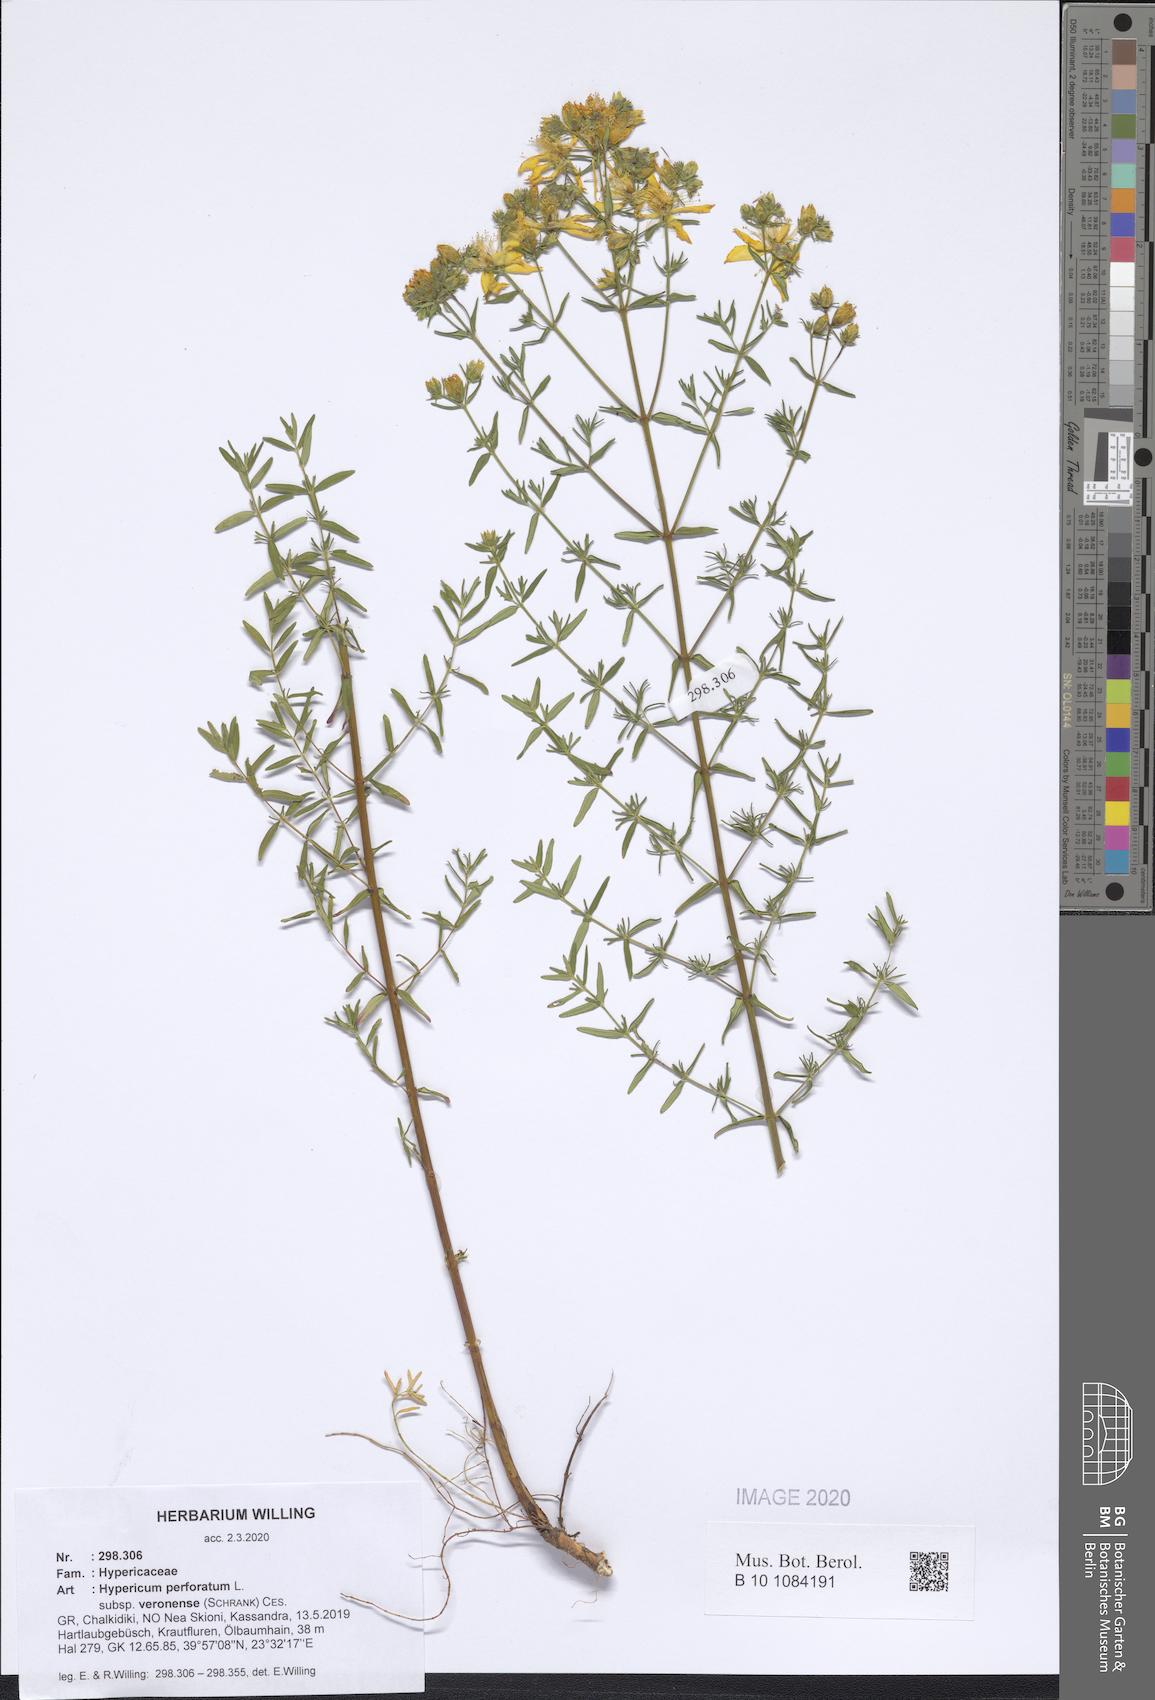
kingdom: Plantae
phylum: Tracheophyta
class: Magnoliopsida
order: Malpighiales
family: Hypericaceae
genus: Hypericum
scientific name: Hypericum veronense
